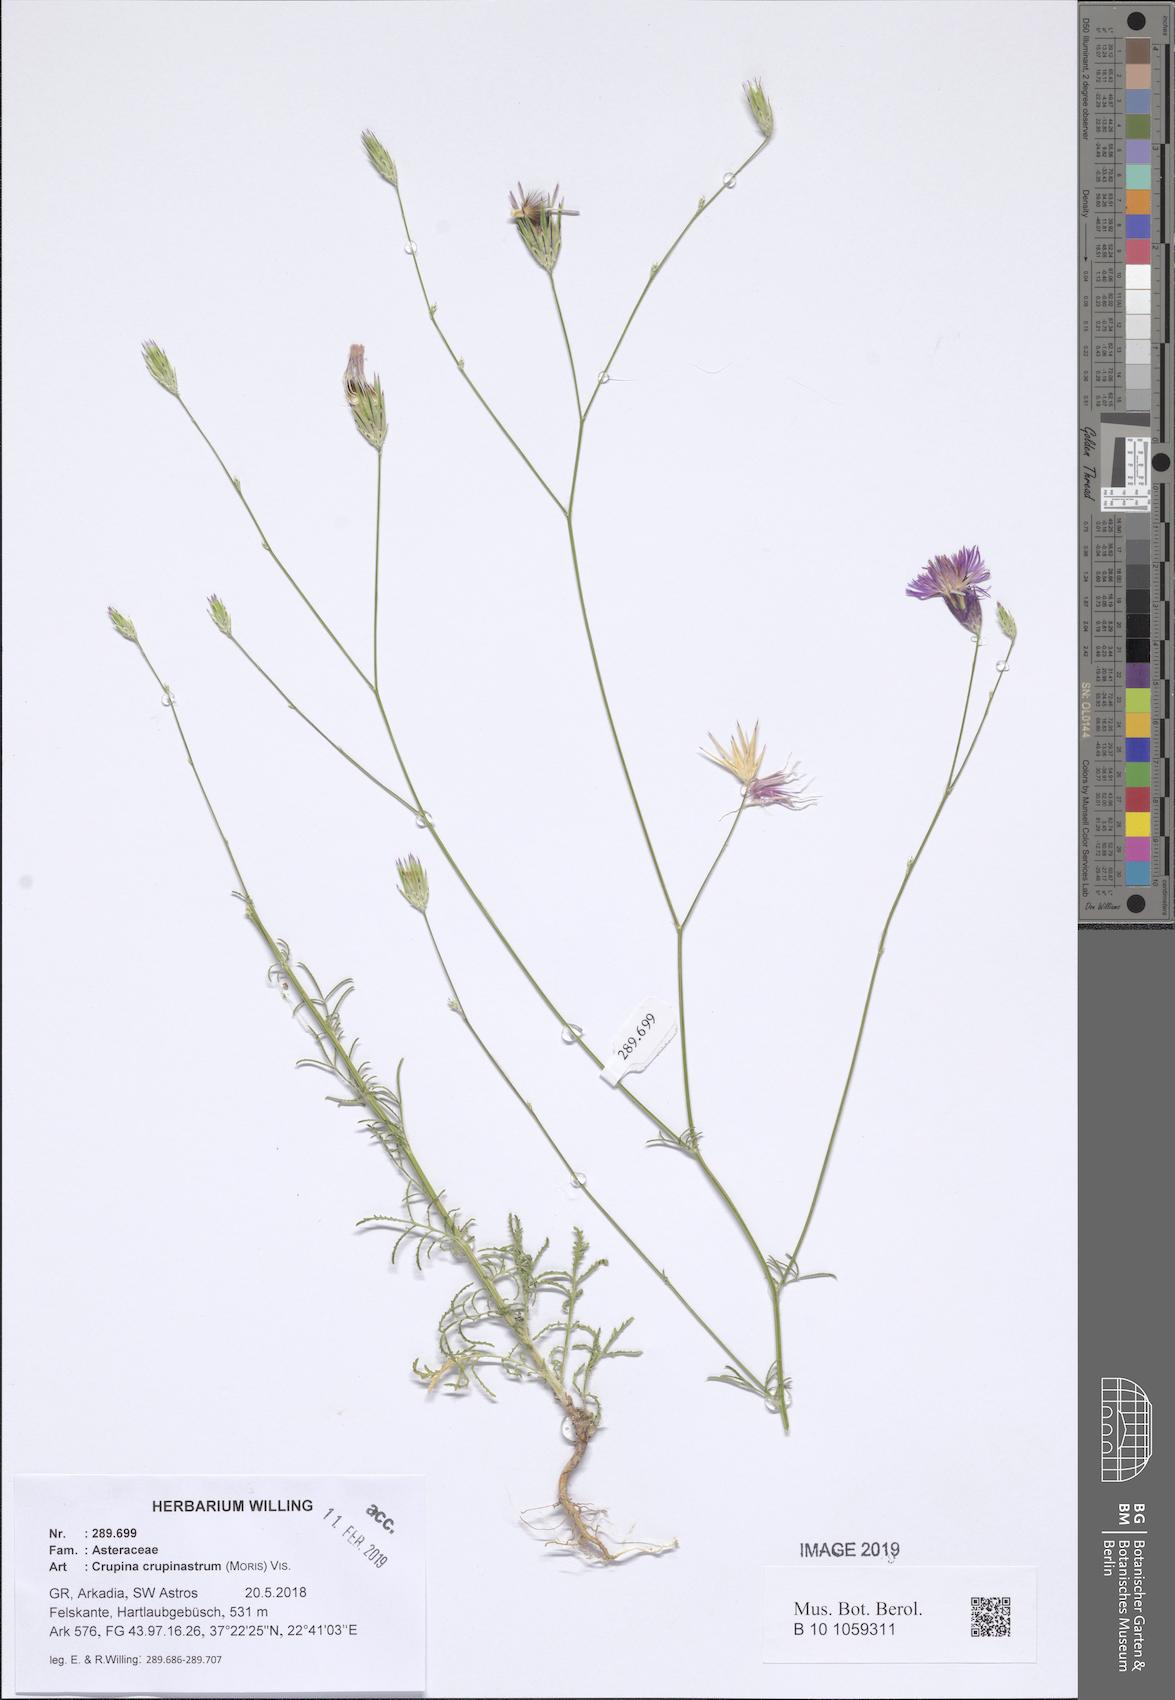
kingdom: Plantae
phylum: Tracheophyta
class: Magnoliopsida
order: Asterales
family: Asteraceae
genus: Crupina
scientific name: Crupina crupinastrum
